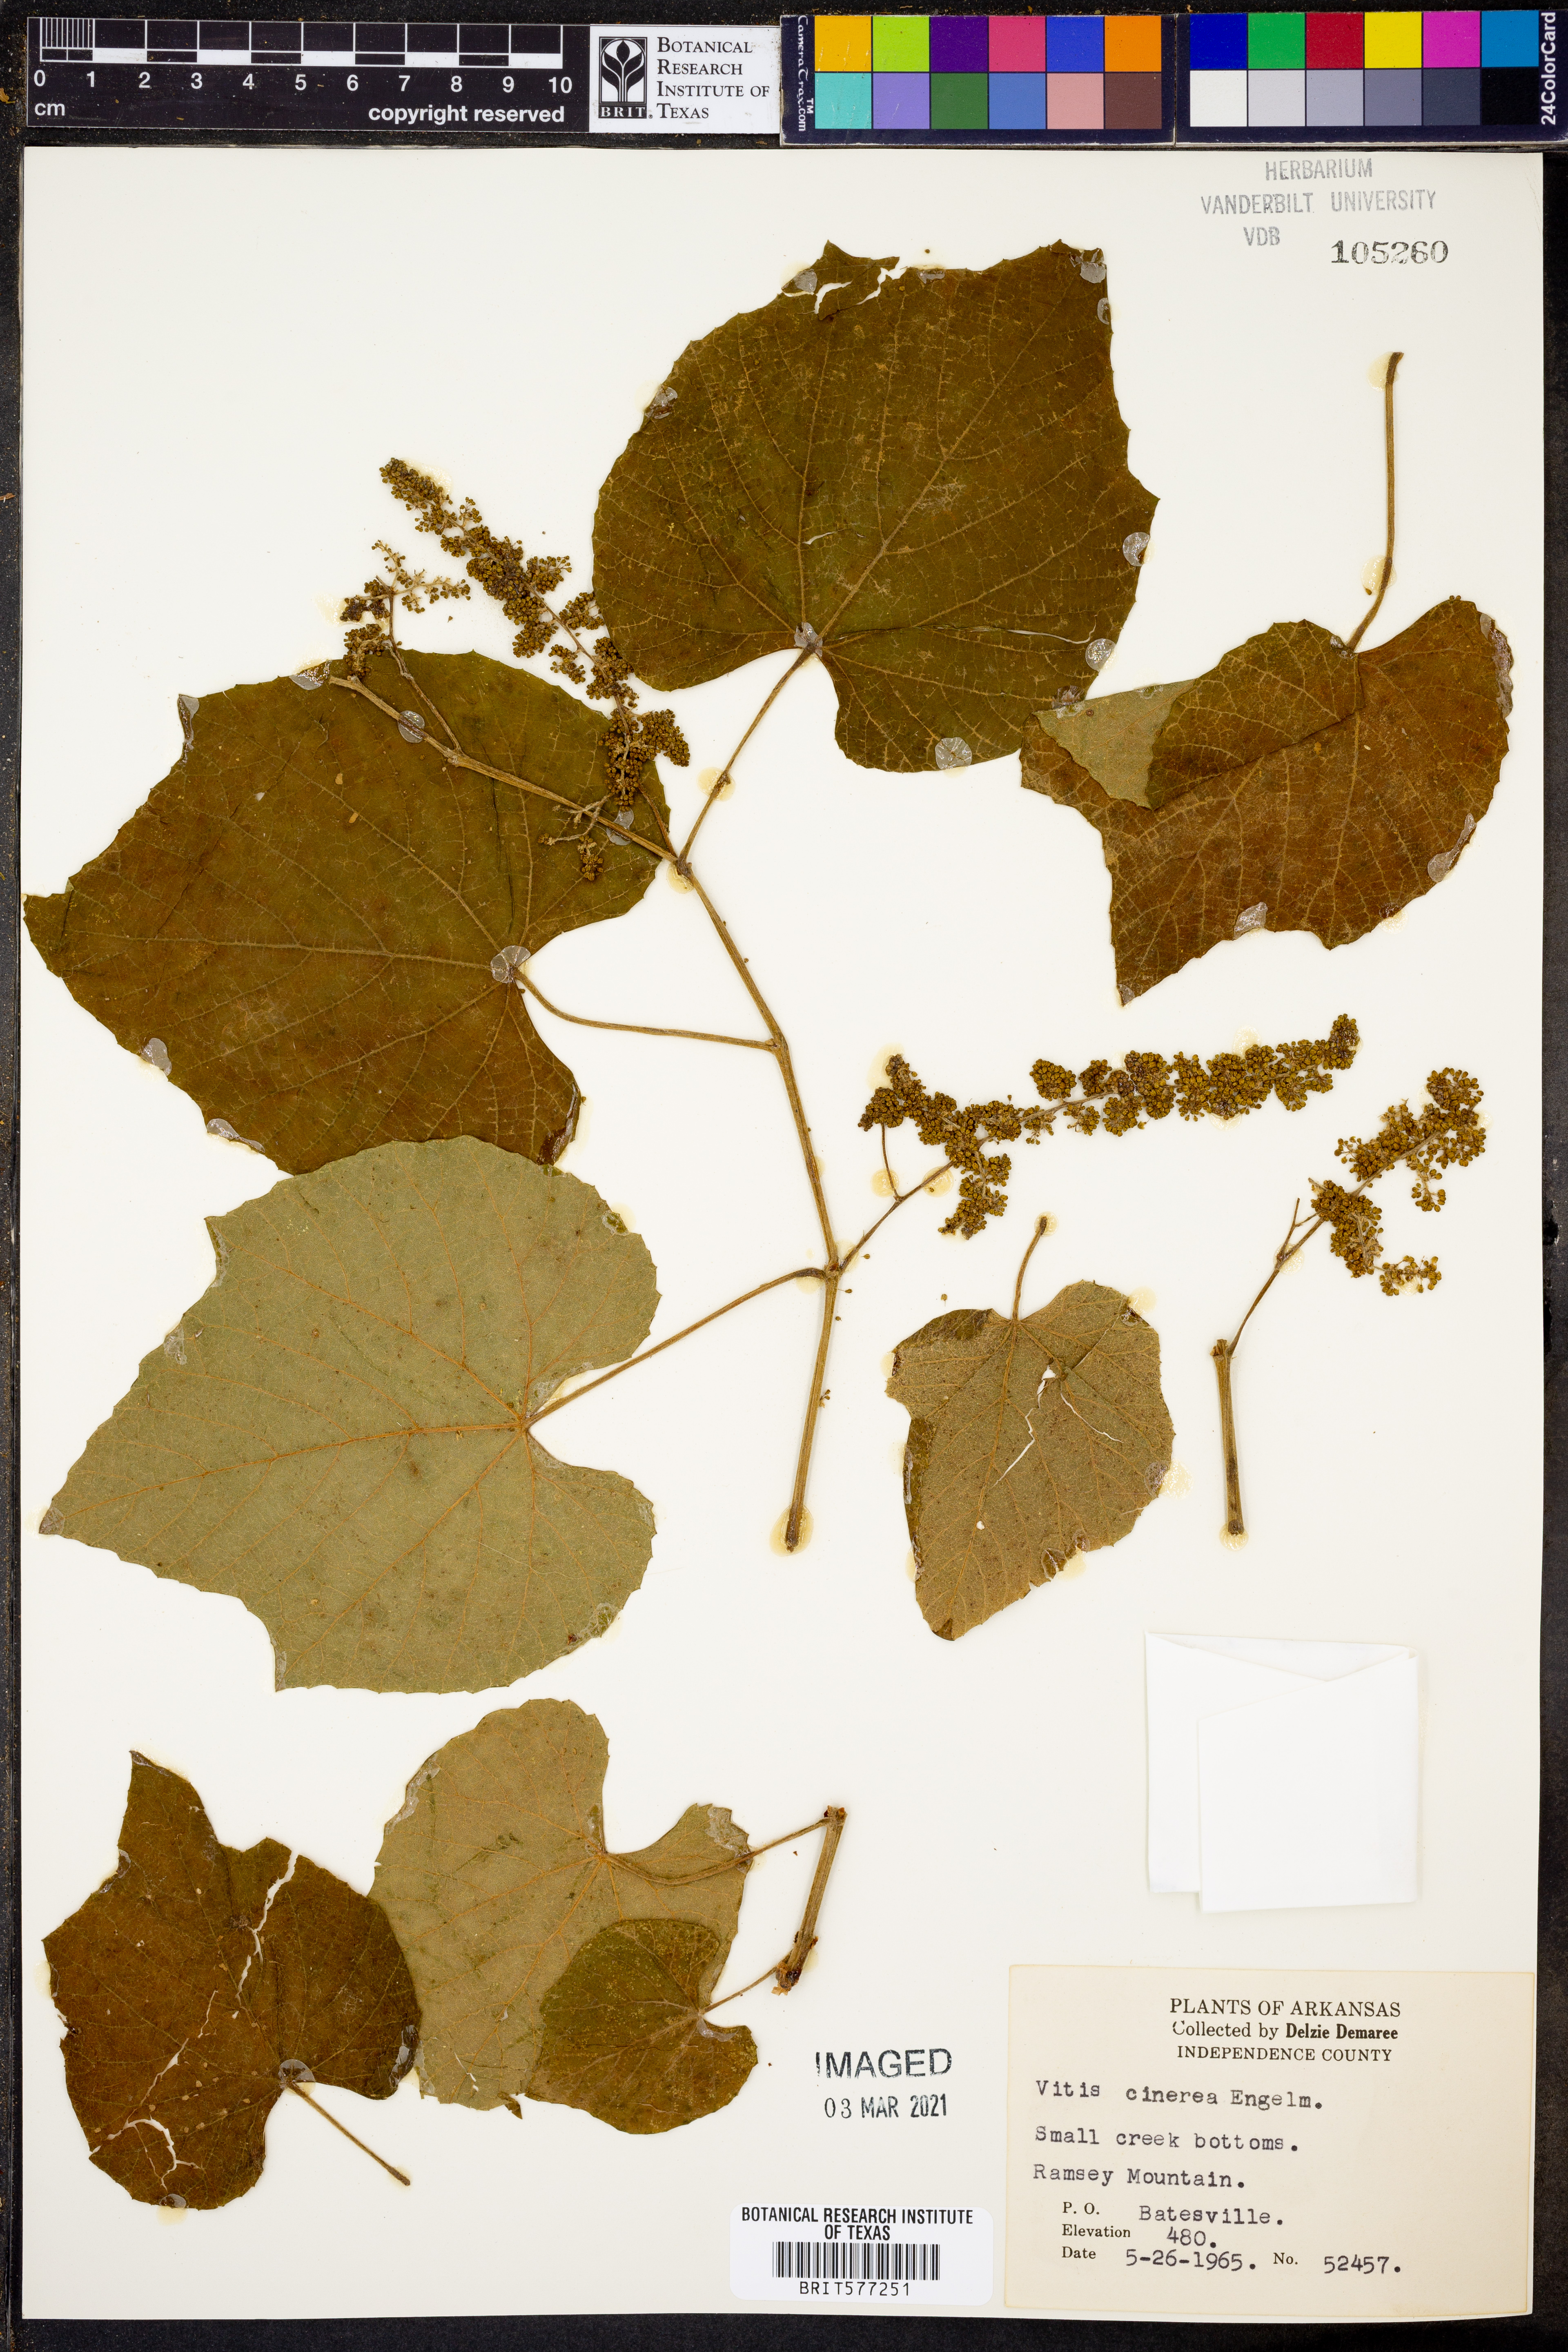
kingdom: Plantae
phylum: Tracheophyta
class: Magnoliopsida
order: Vitales
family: Vitaceae
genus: Vitis
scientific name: Vitis cinerea
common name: Ashy grape
